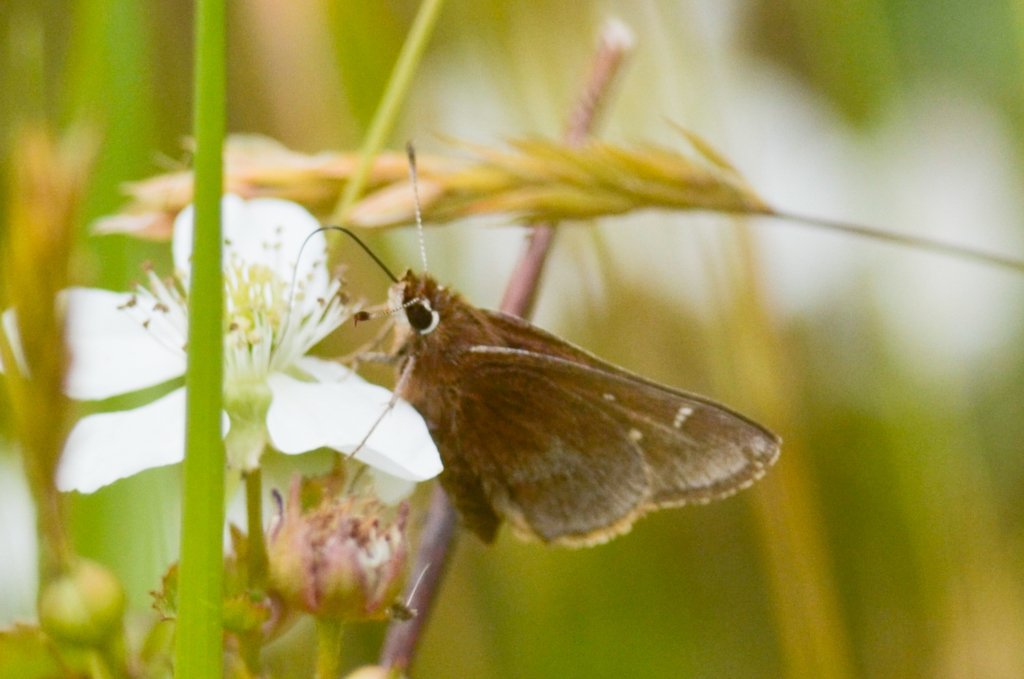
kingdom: Animalia
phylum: Arthropoda
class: Insecta
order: Lepidoptera
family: Hesperiidae
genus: Atrytonopsis
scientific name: Atrytonopsis hianna
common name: Dusted Skipper
